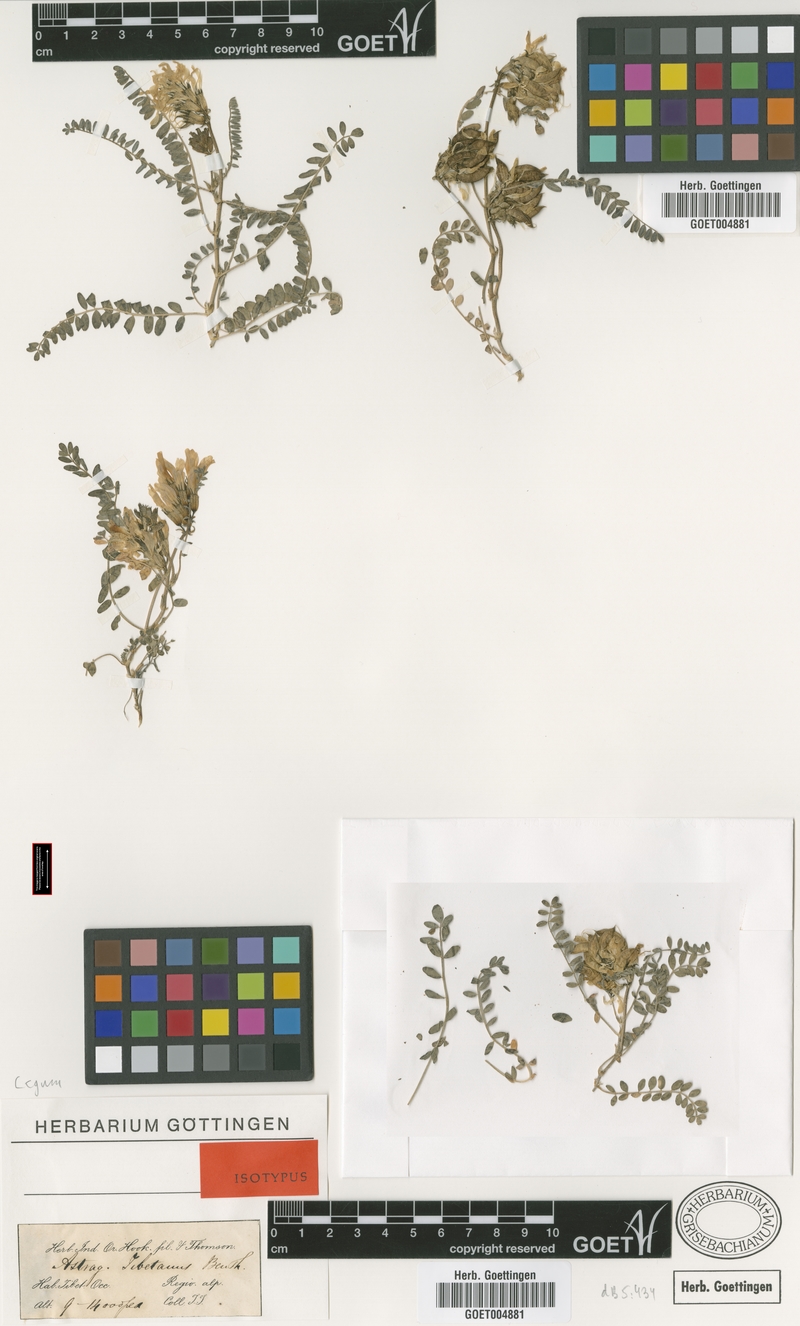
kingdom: Plantae
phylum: Tracheophyta
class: Magnoliopsida
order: Fabales
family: Fabaceae
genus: Astragalus
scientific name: Astragalus tibetanus
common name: Tibet milkvetch
